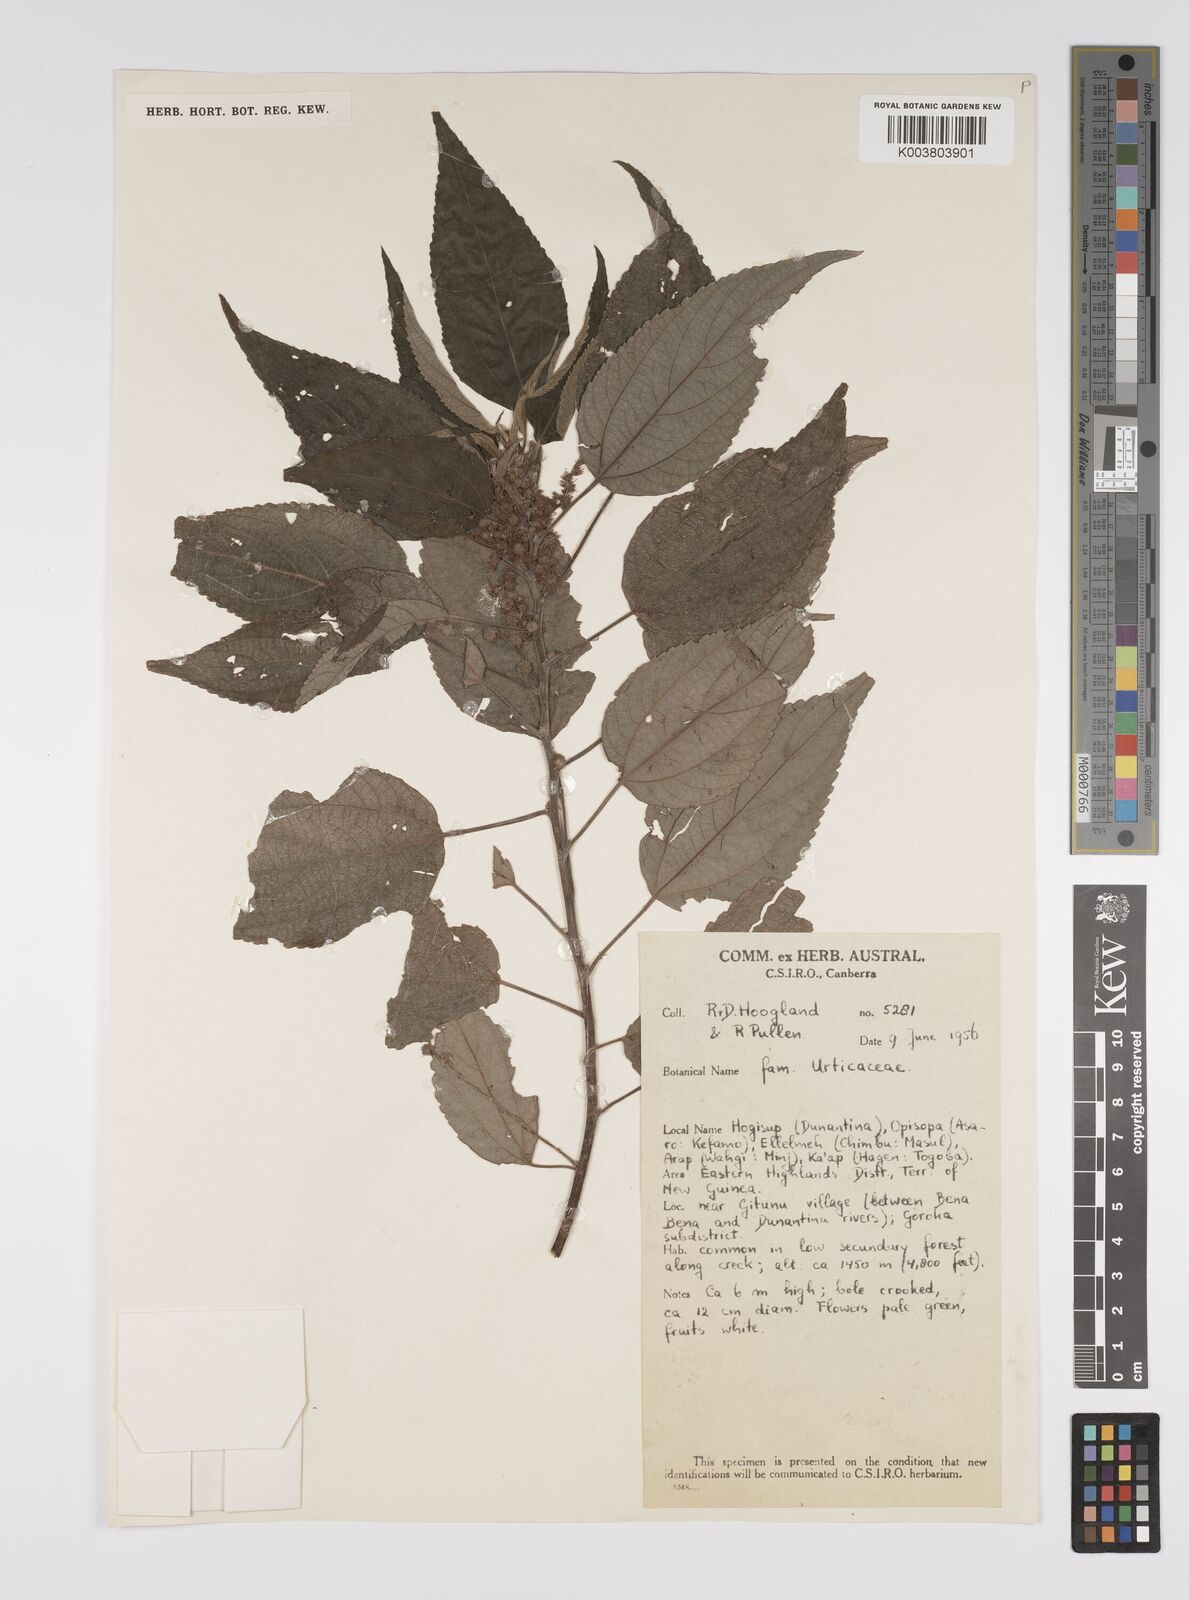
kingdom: Plantae
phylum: Tracheophyta
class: Magnoliopsida
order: Rosales
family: Urticaceae
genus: Pipturus
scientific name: Pipturus argenteus
